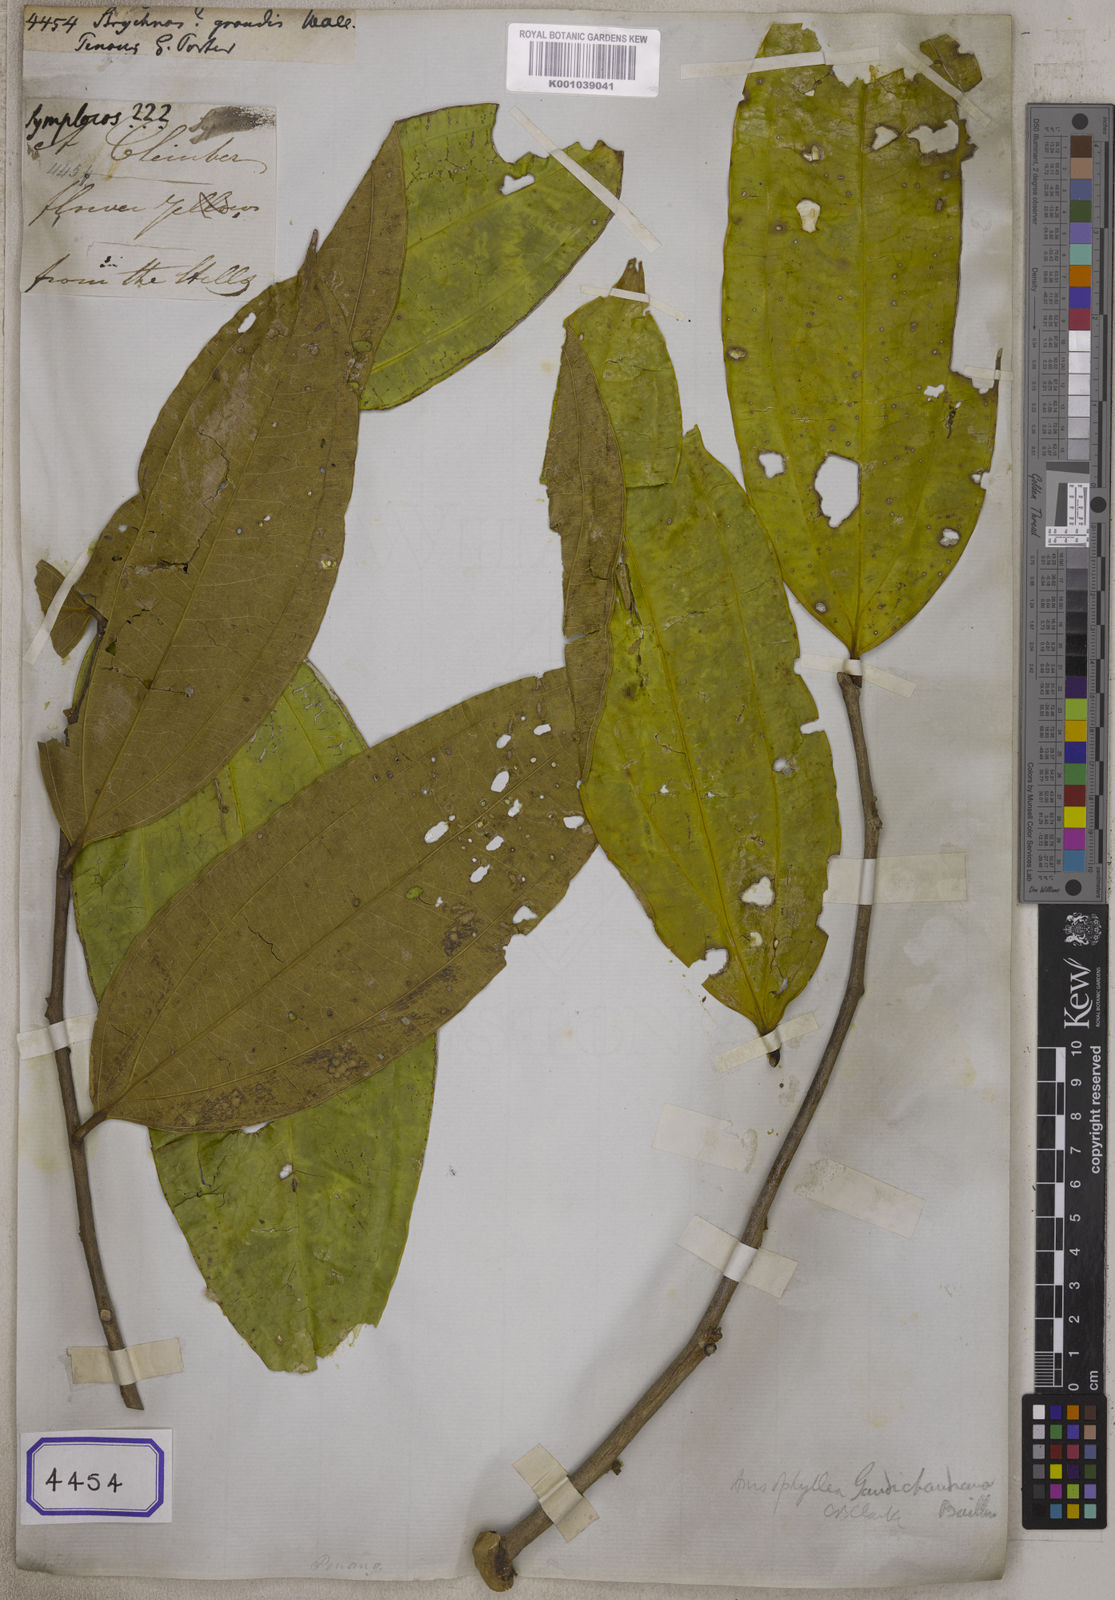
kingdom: Plantae
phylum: Tracheophyta
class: Magnoliopsida
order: Gentianales
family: Loganiaceae
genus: Spigelia
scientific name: Spigelia stenocardia
